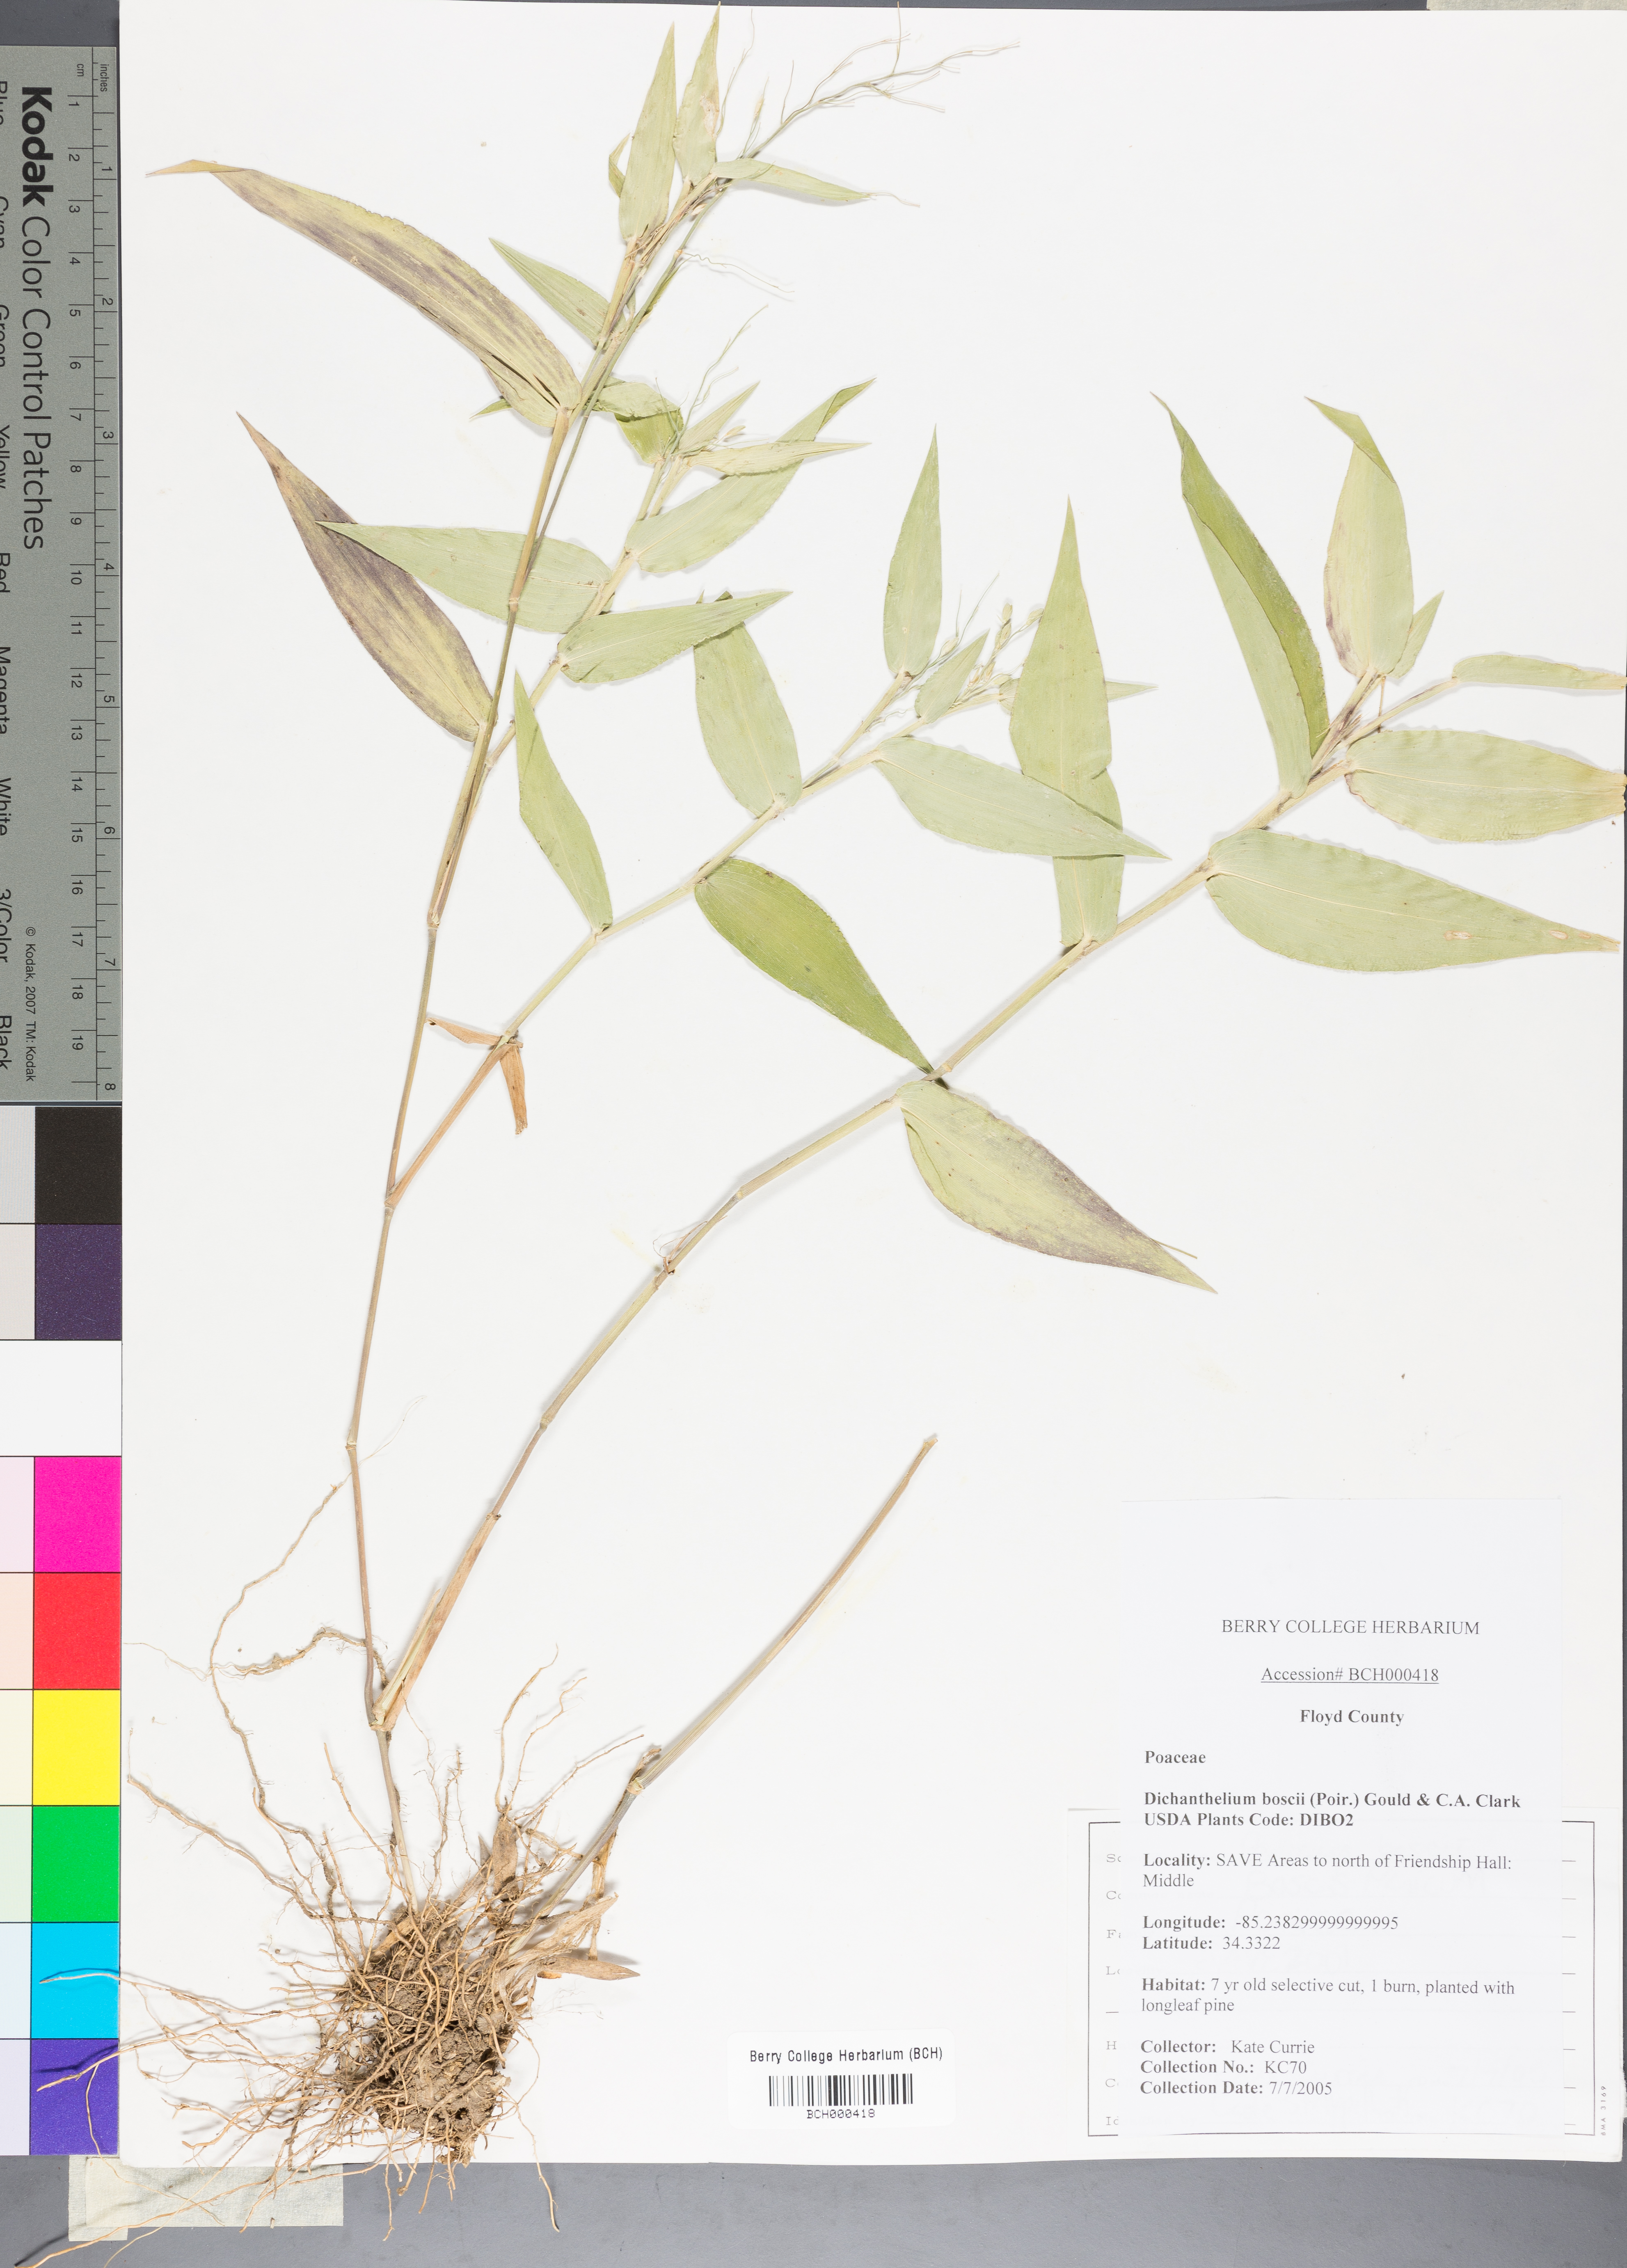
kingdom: Plantae
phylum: Tracheophyta
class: Liliopsida
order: Poales
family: Poaceae
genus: Dichanthelium
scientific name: Dichanthelium boscii
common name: Bosc's panic grass
